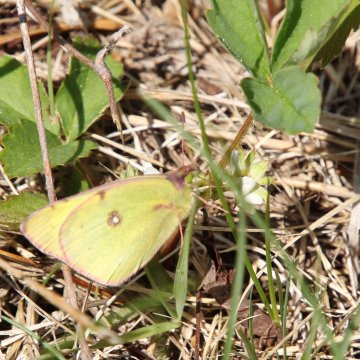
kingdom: Animalia
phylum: Arthropoda
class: Insecta
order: Lepidoptera
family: Pieridae
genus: Colias
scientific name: Colias philodice
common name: Clouded Sulphur
